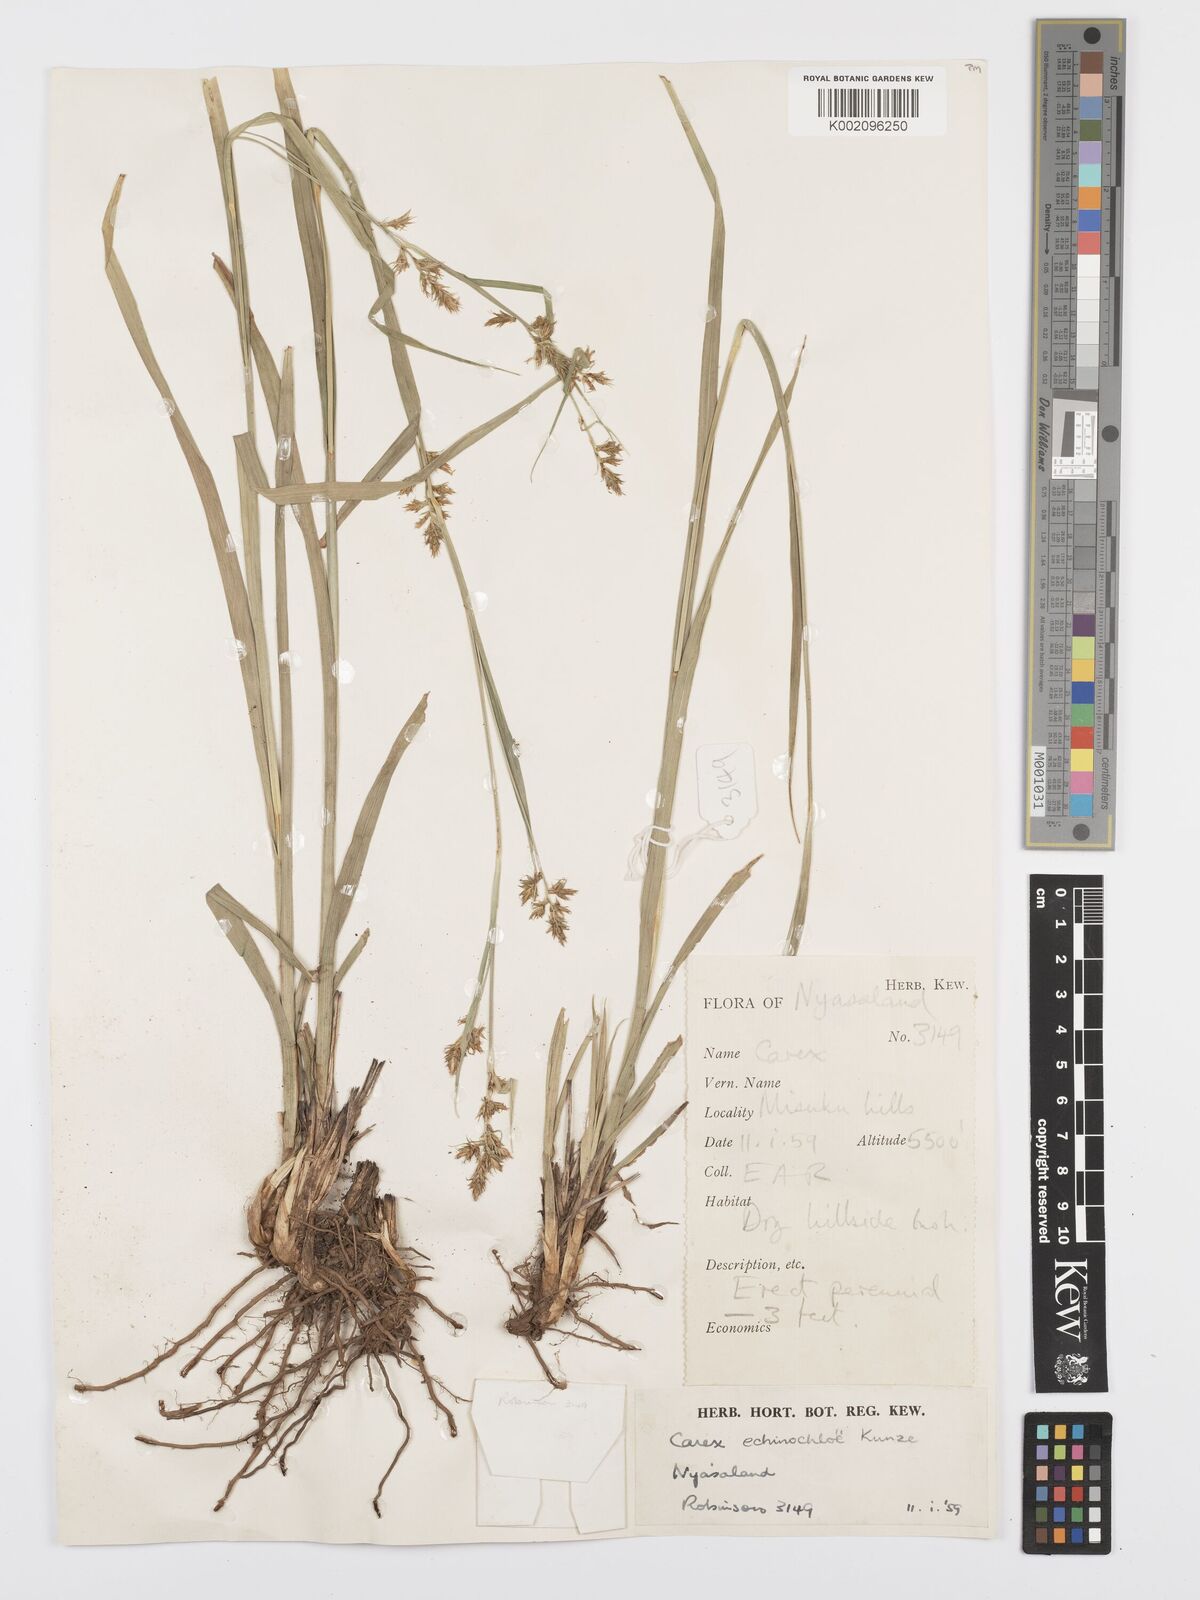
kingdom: Plantae
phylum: Tracheophyta
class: Liliopsida
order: Poales
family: Cyperaceae
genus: Carex
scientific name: Carex echinochloe
